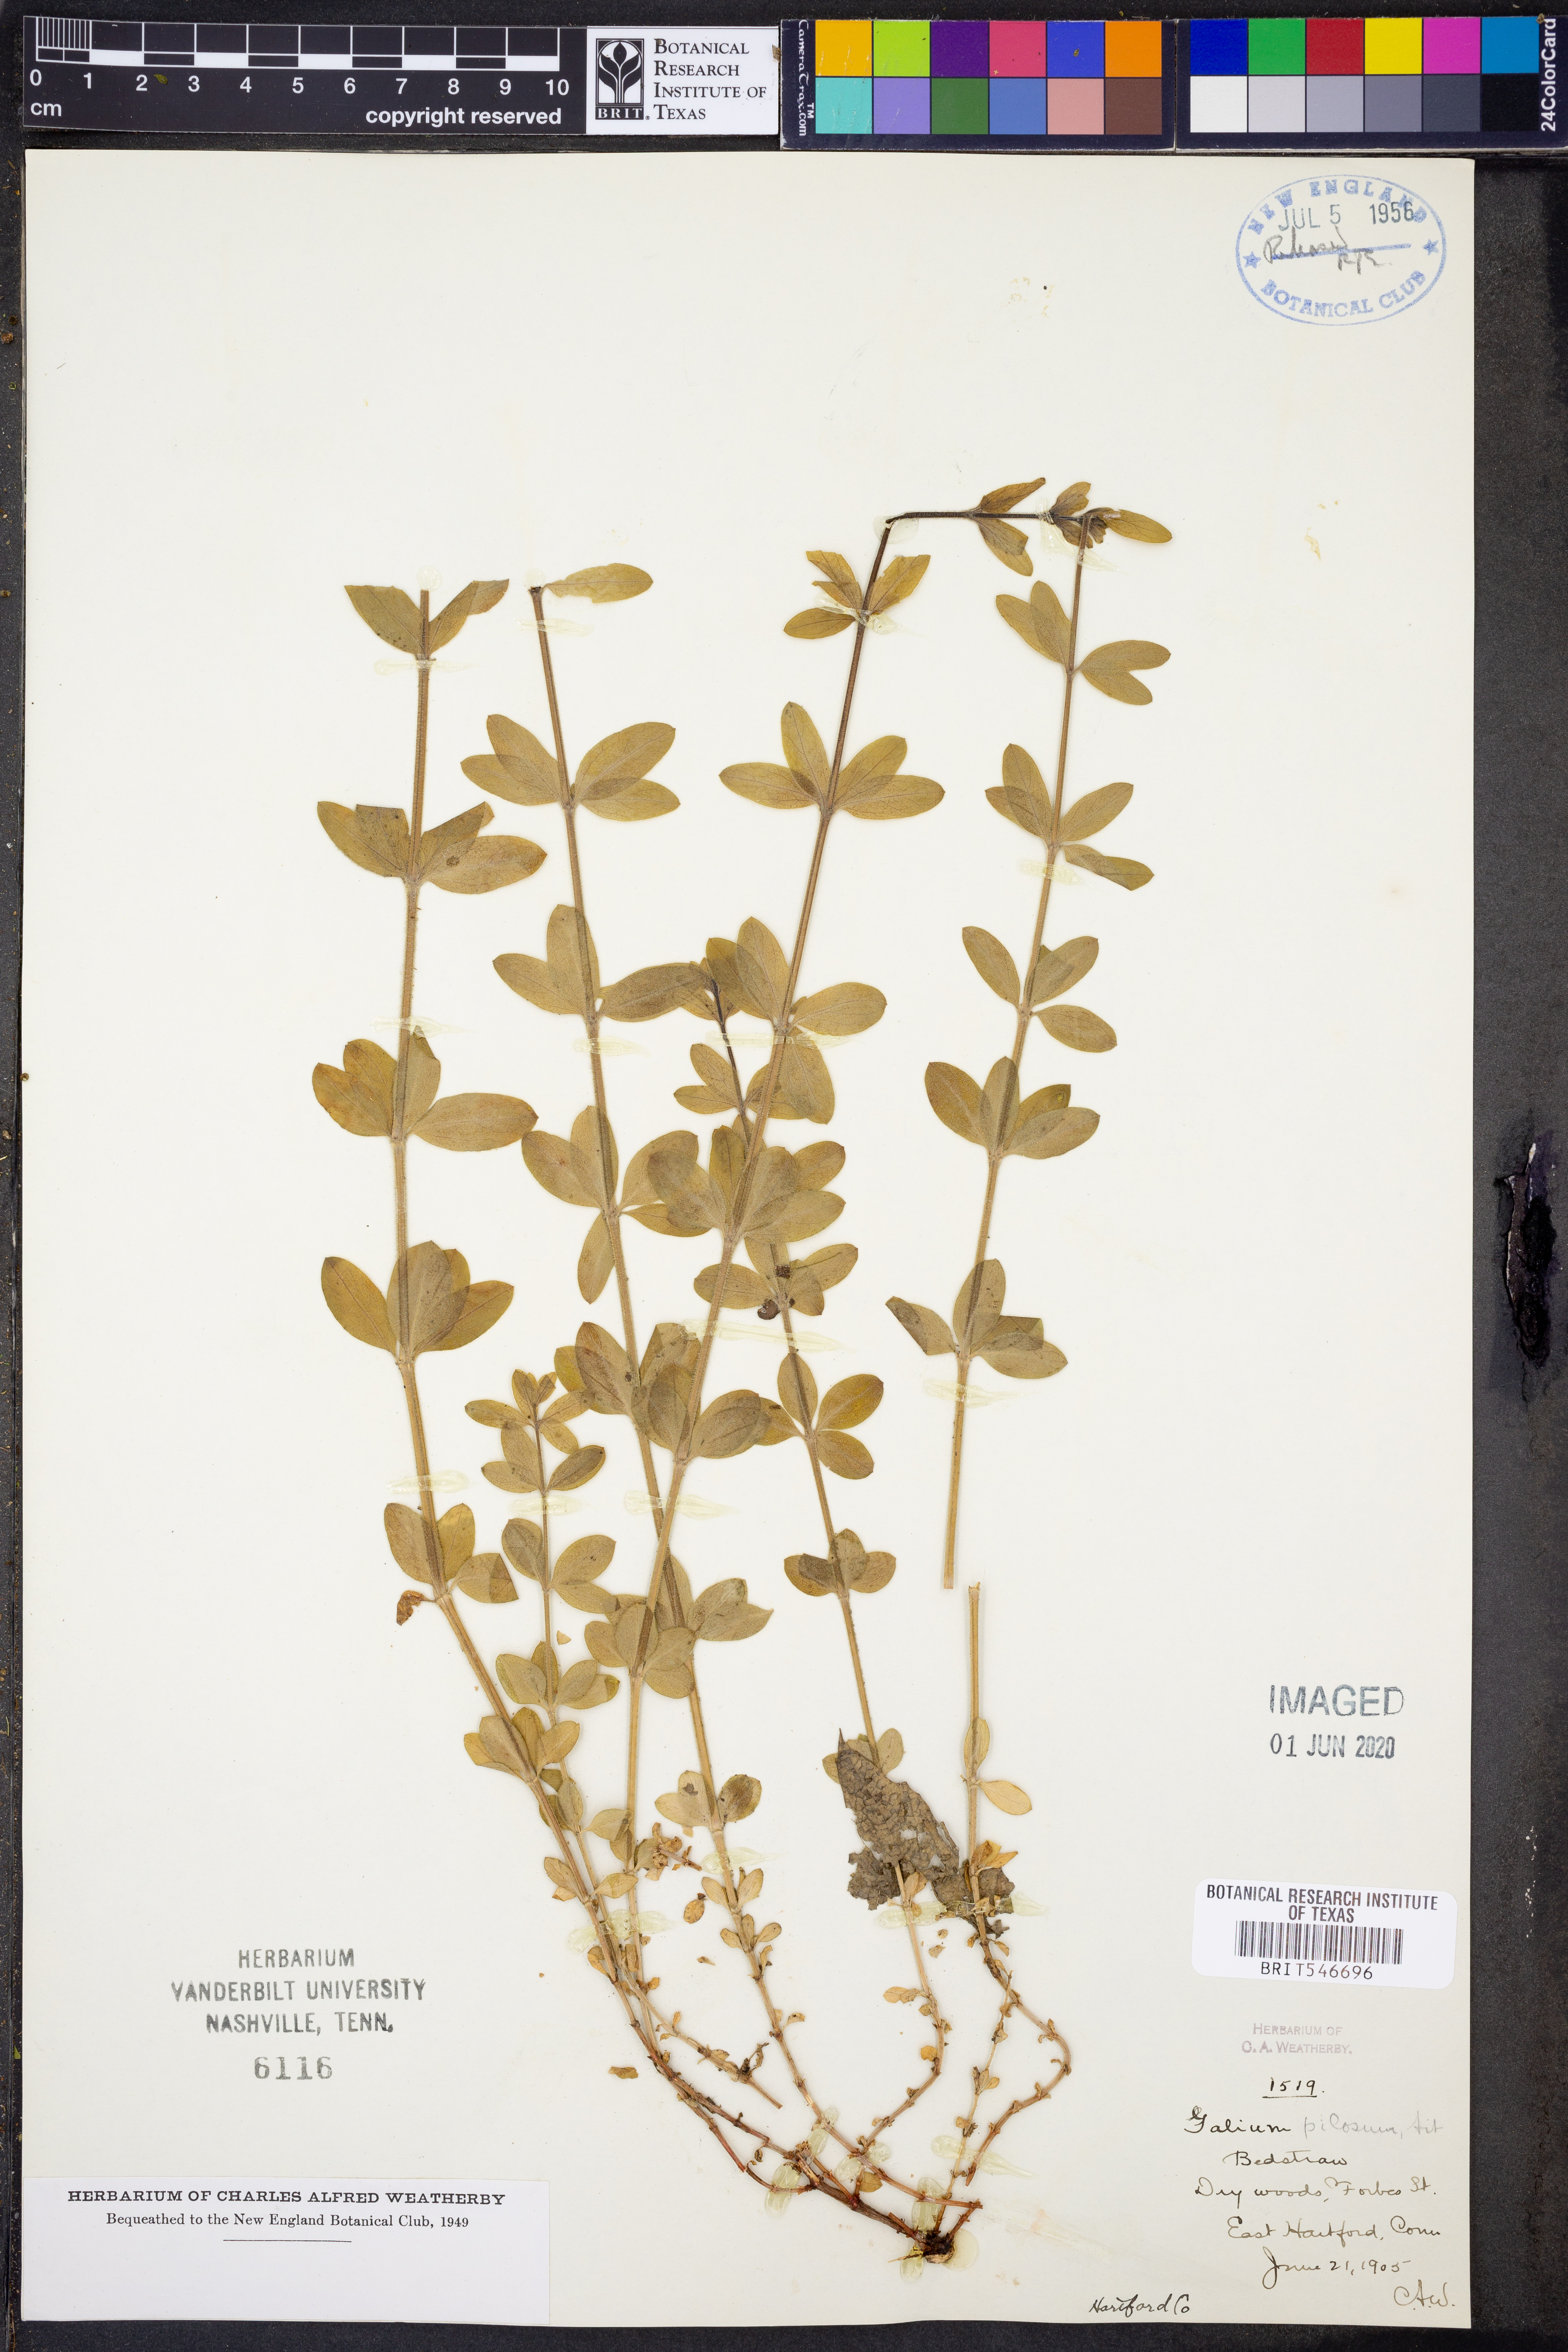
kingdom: Plantae
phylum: Tracheophyta
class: Magnoliopsida
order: Gentianales
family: Rubiaceae
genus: Galium
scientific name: Galium pilosum
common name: Hairy bedstraw
